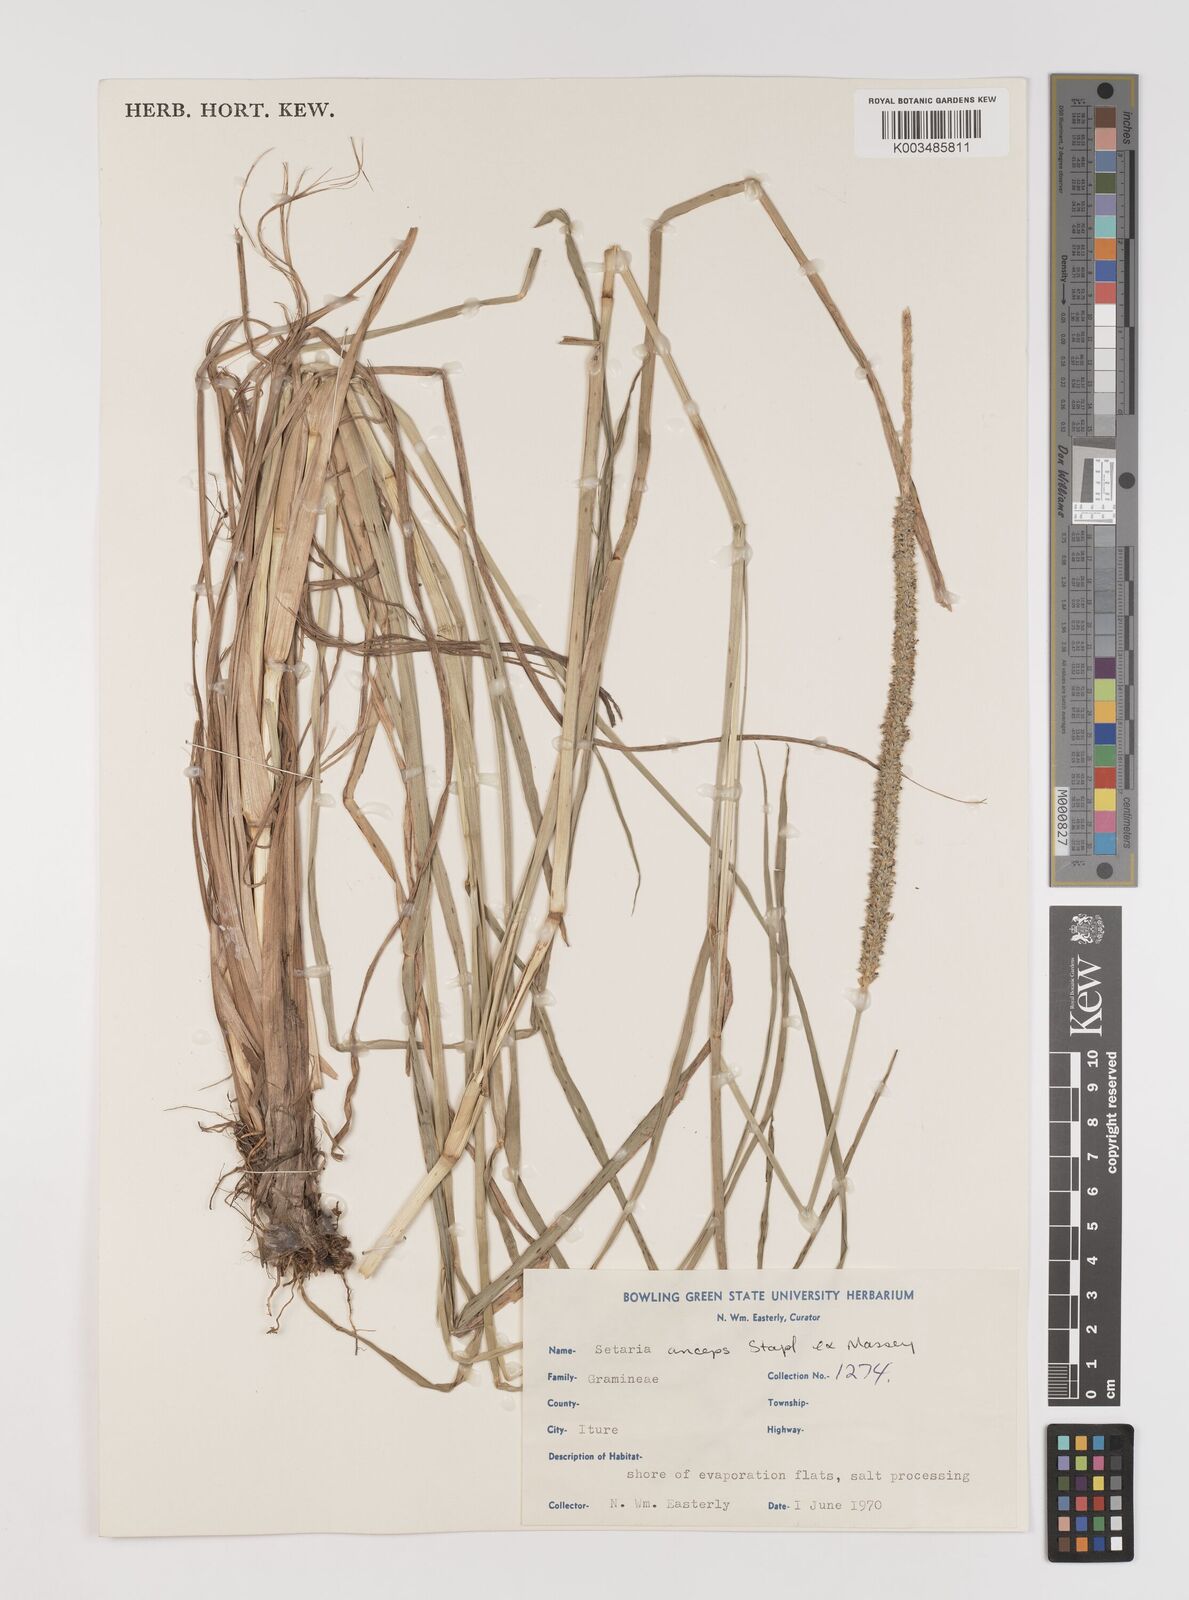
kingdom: Plantae
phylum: Tracheophyta
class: Liliopsida
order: Poales
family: Poaceae
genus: Setaria
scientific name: Setaria sphacelata
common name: African bristlegrass
